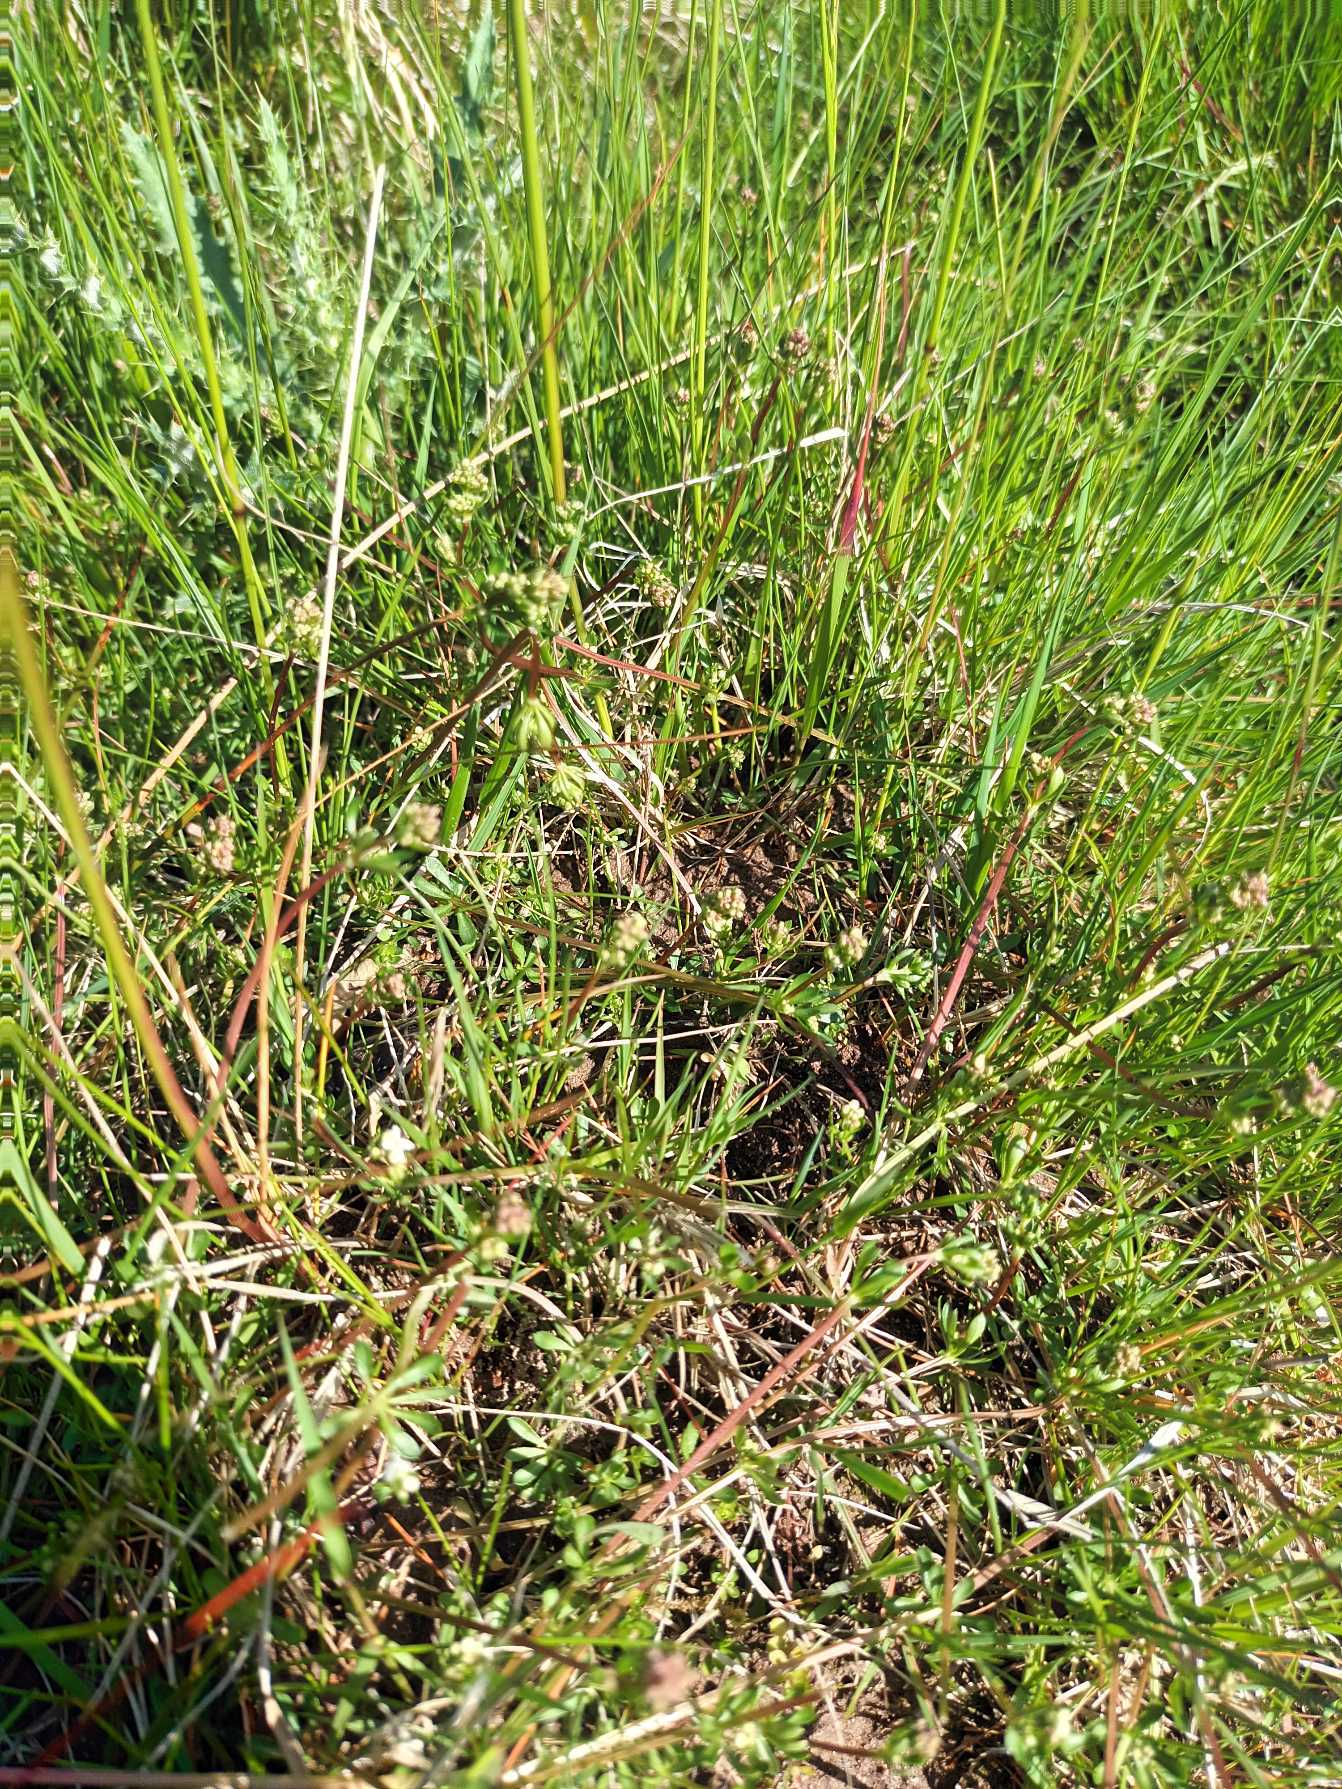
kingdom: Plantae
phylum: Tracheophyta
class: Magnoliopsida
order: Gentianales
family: Rubiaceae
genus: Galium
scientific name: Galium saxatile
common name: Lyng-snerre
